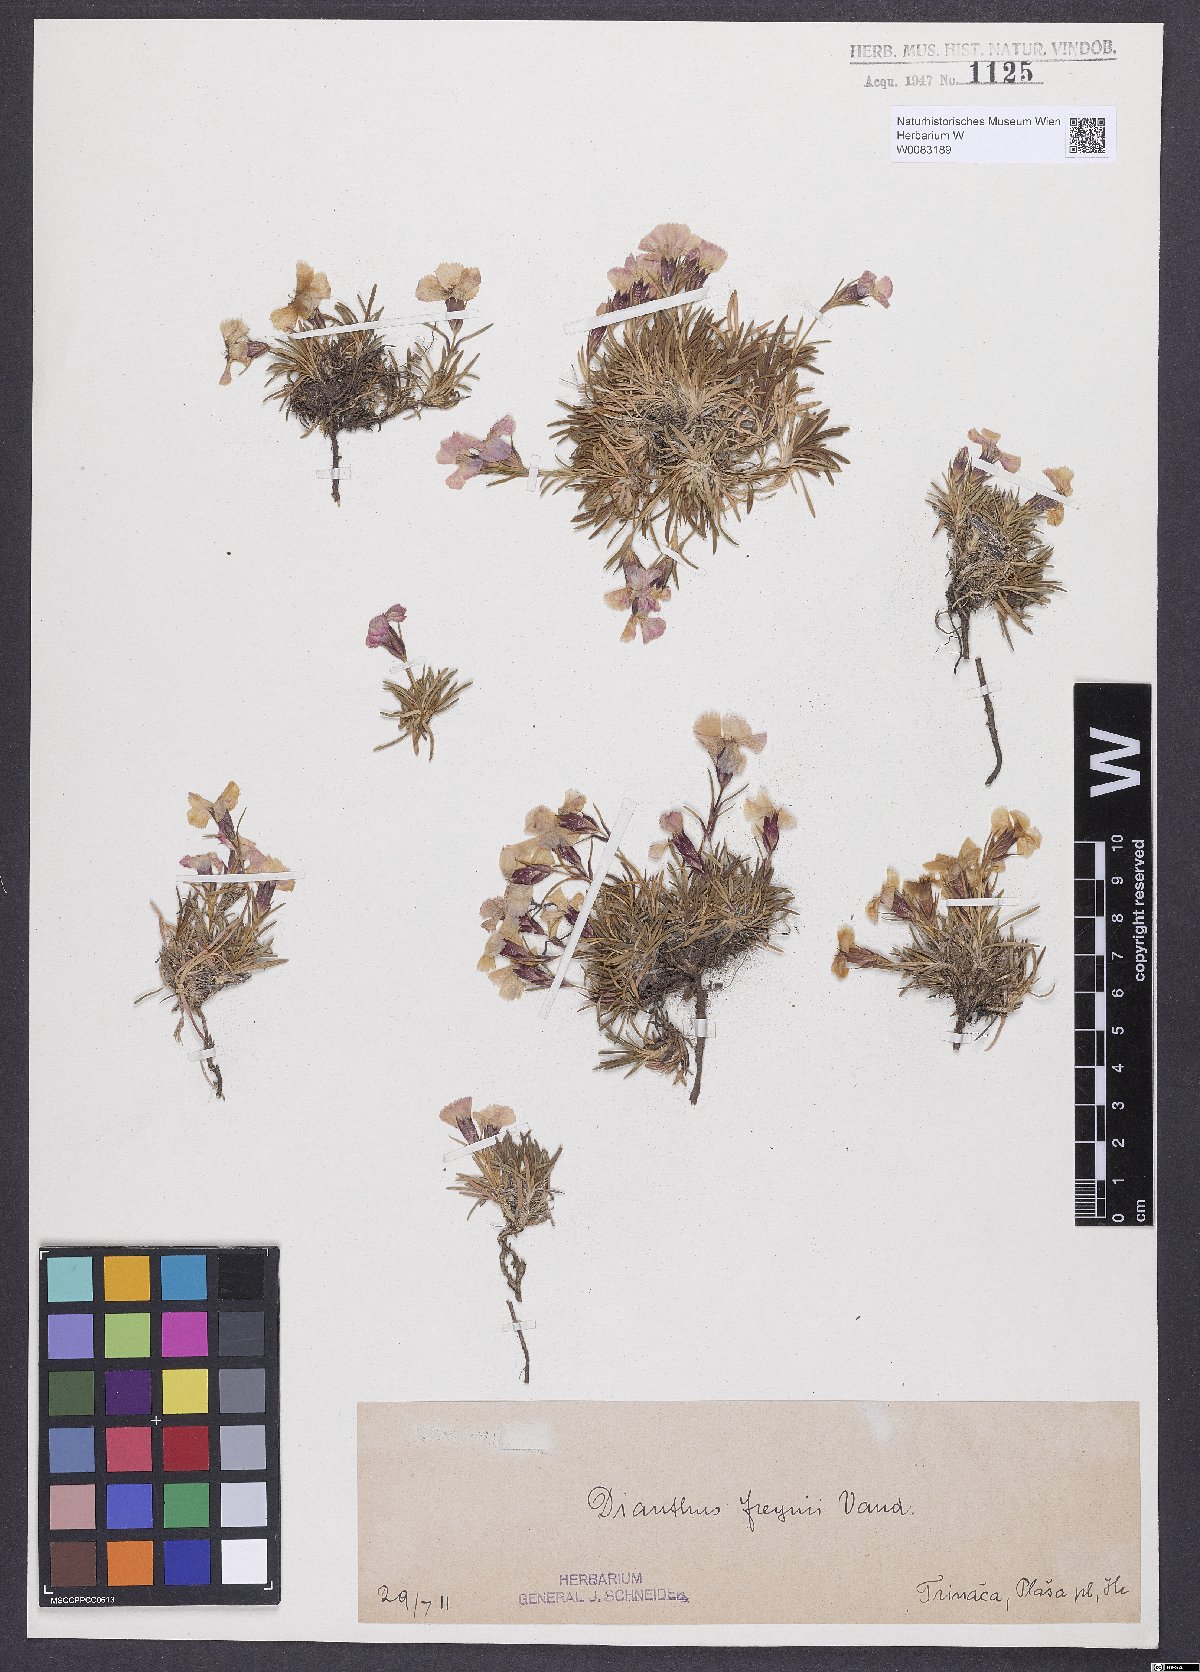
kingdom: Plantae
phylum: Tracheophyta
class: Magnoliopsida
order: Caryophyllales
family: Caryophyllaceae
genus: Dianthus
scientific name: Dianthus freynii
